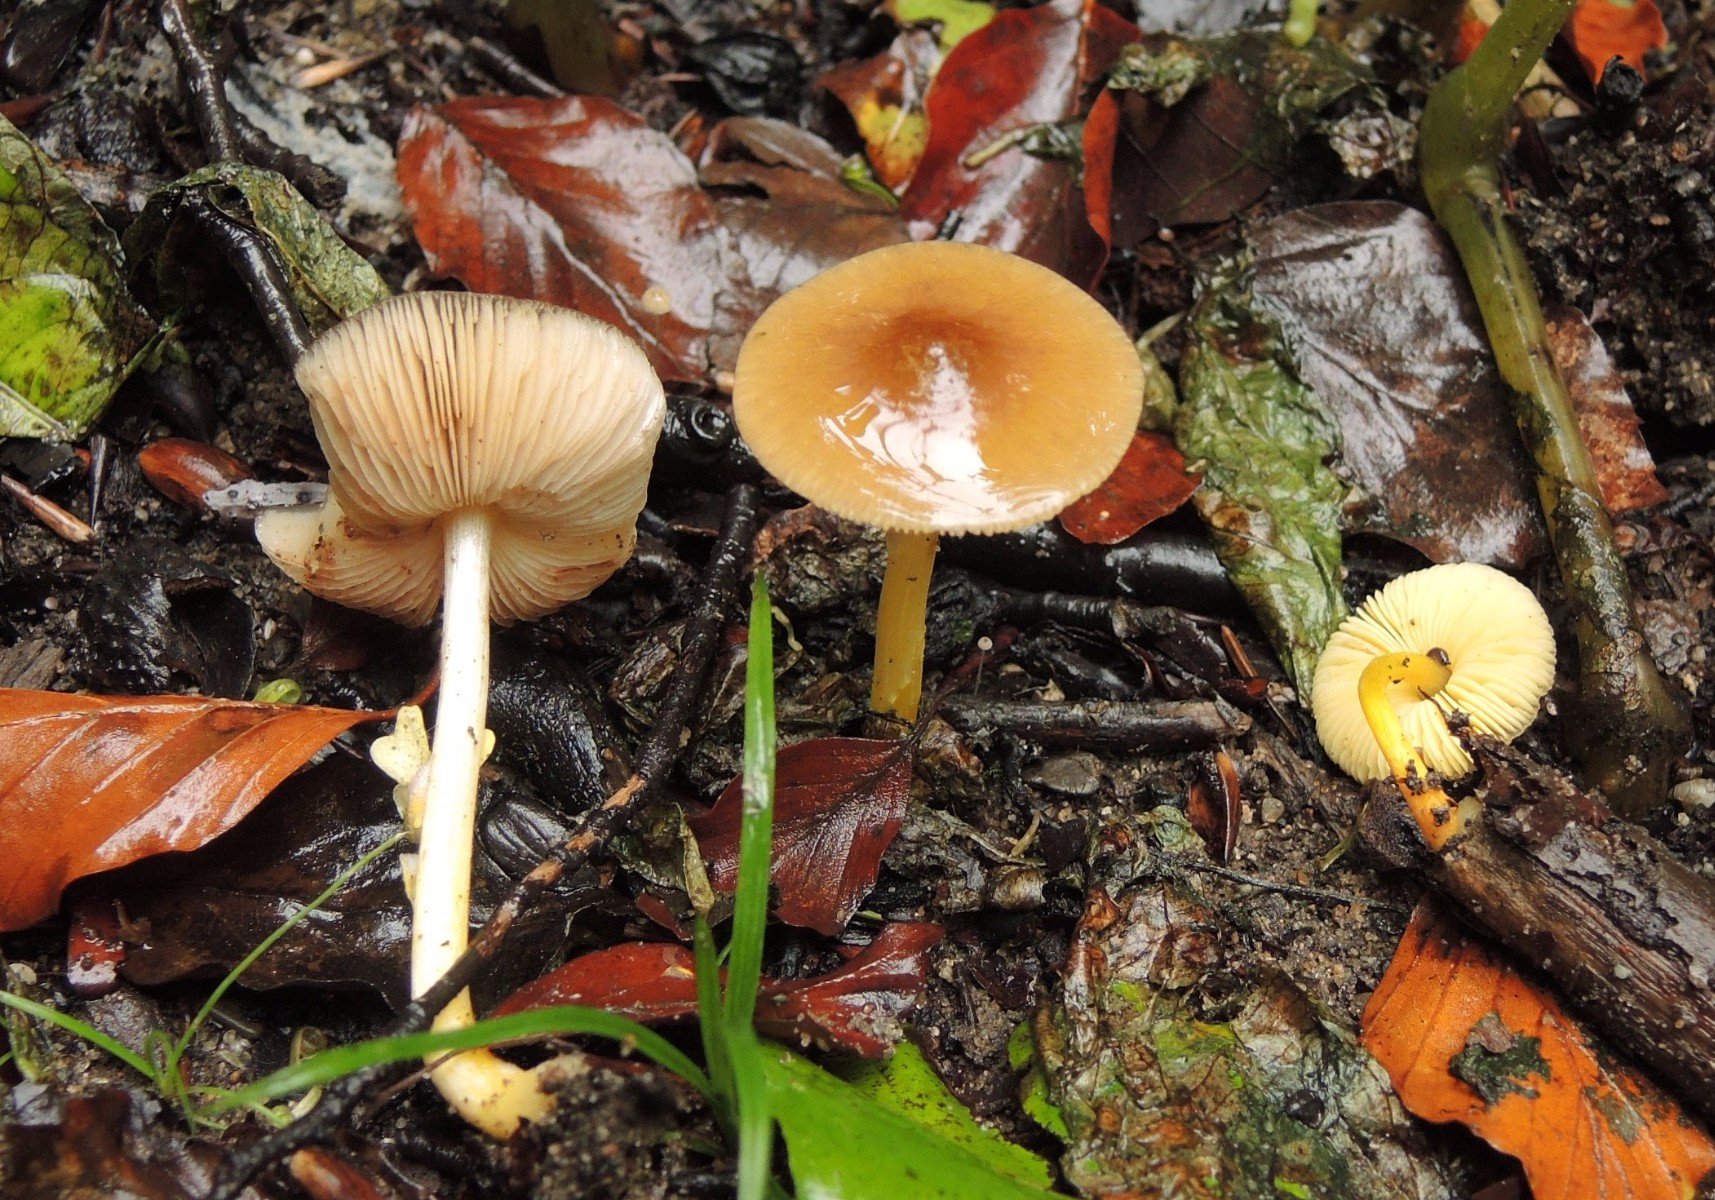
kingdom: Fungi
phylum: Basidiomycota
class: Agaricomycetes
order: Agaricales
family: Pluteaceae
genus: Pluteus
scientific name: Pluteus romellii
